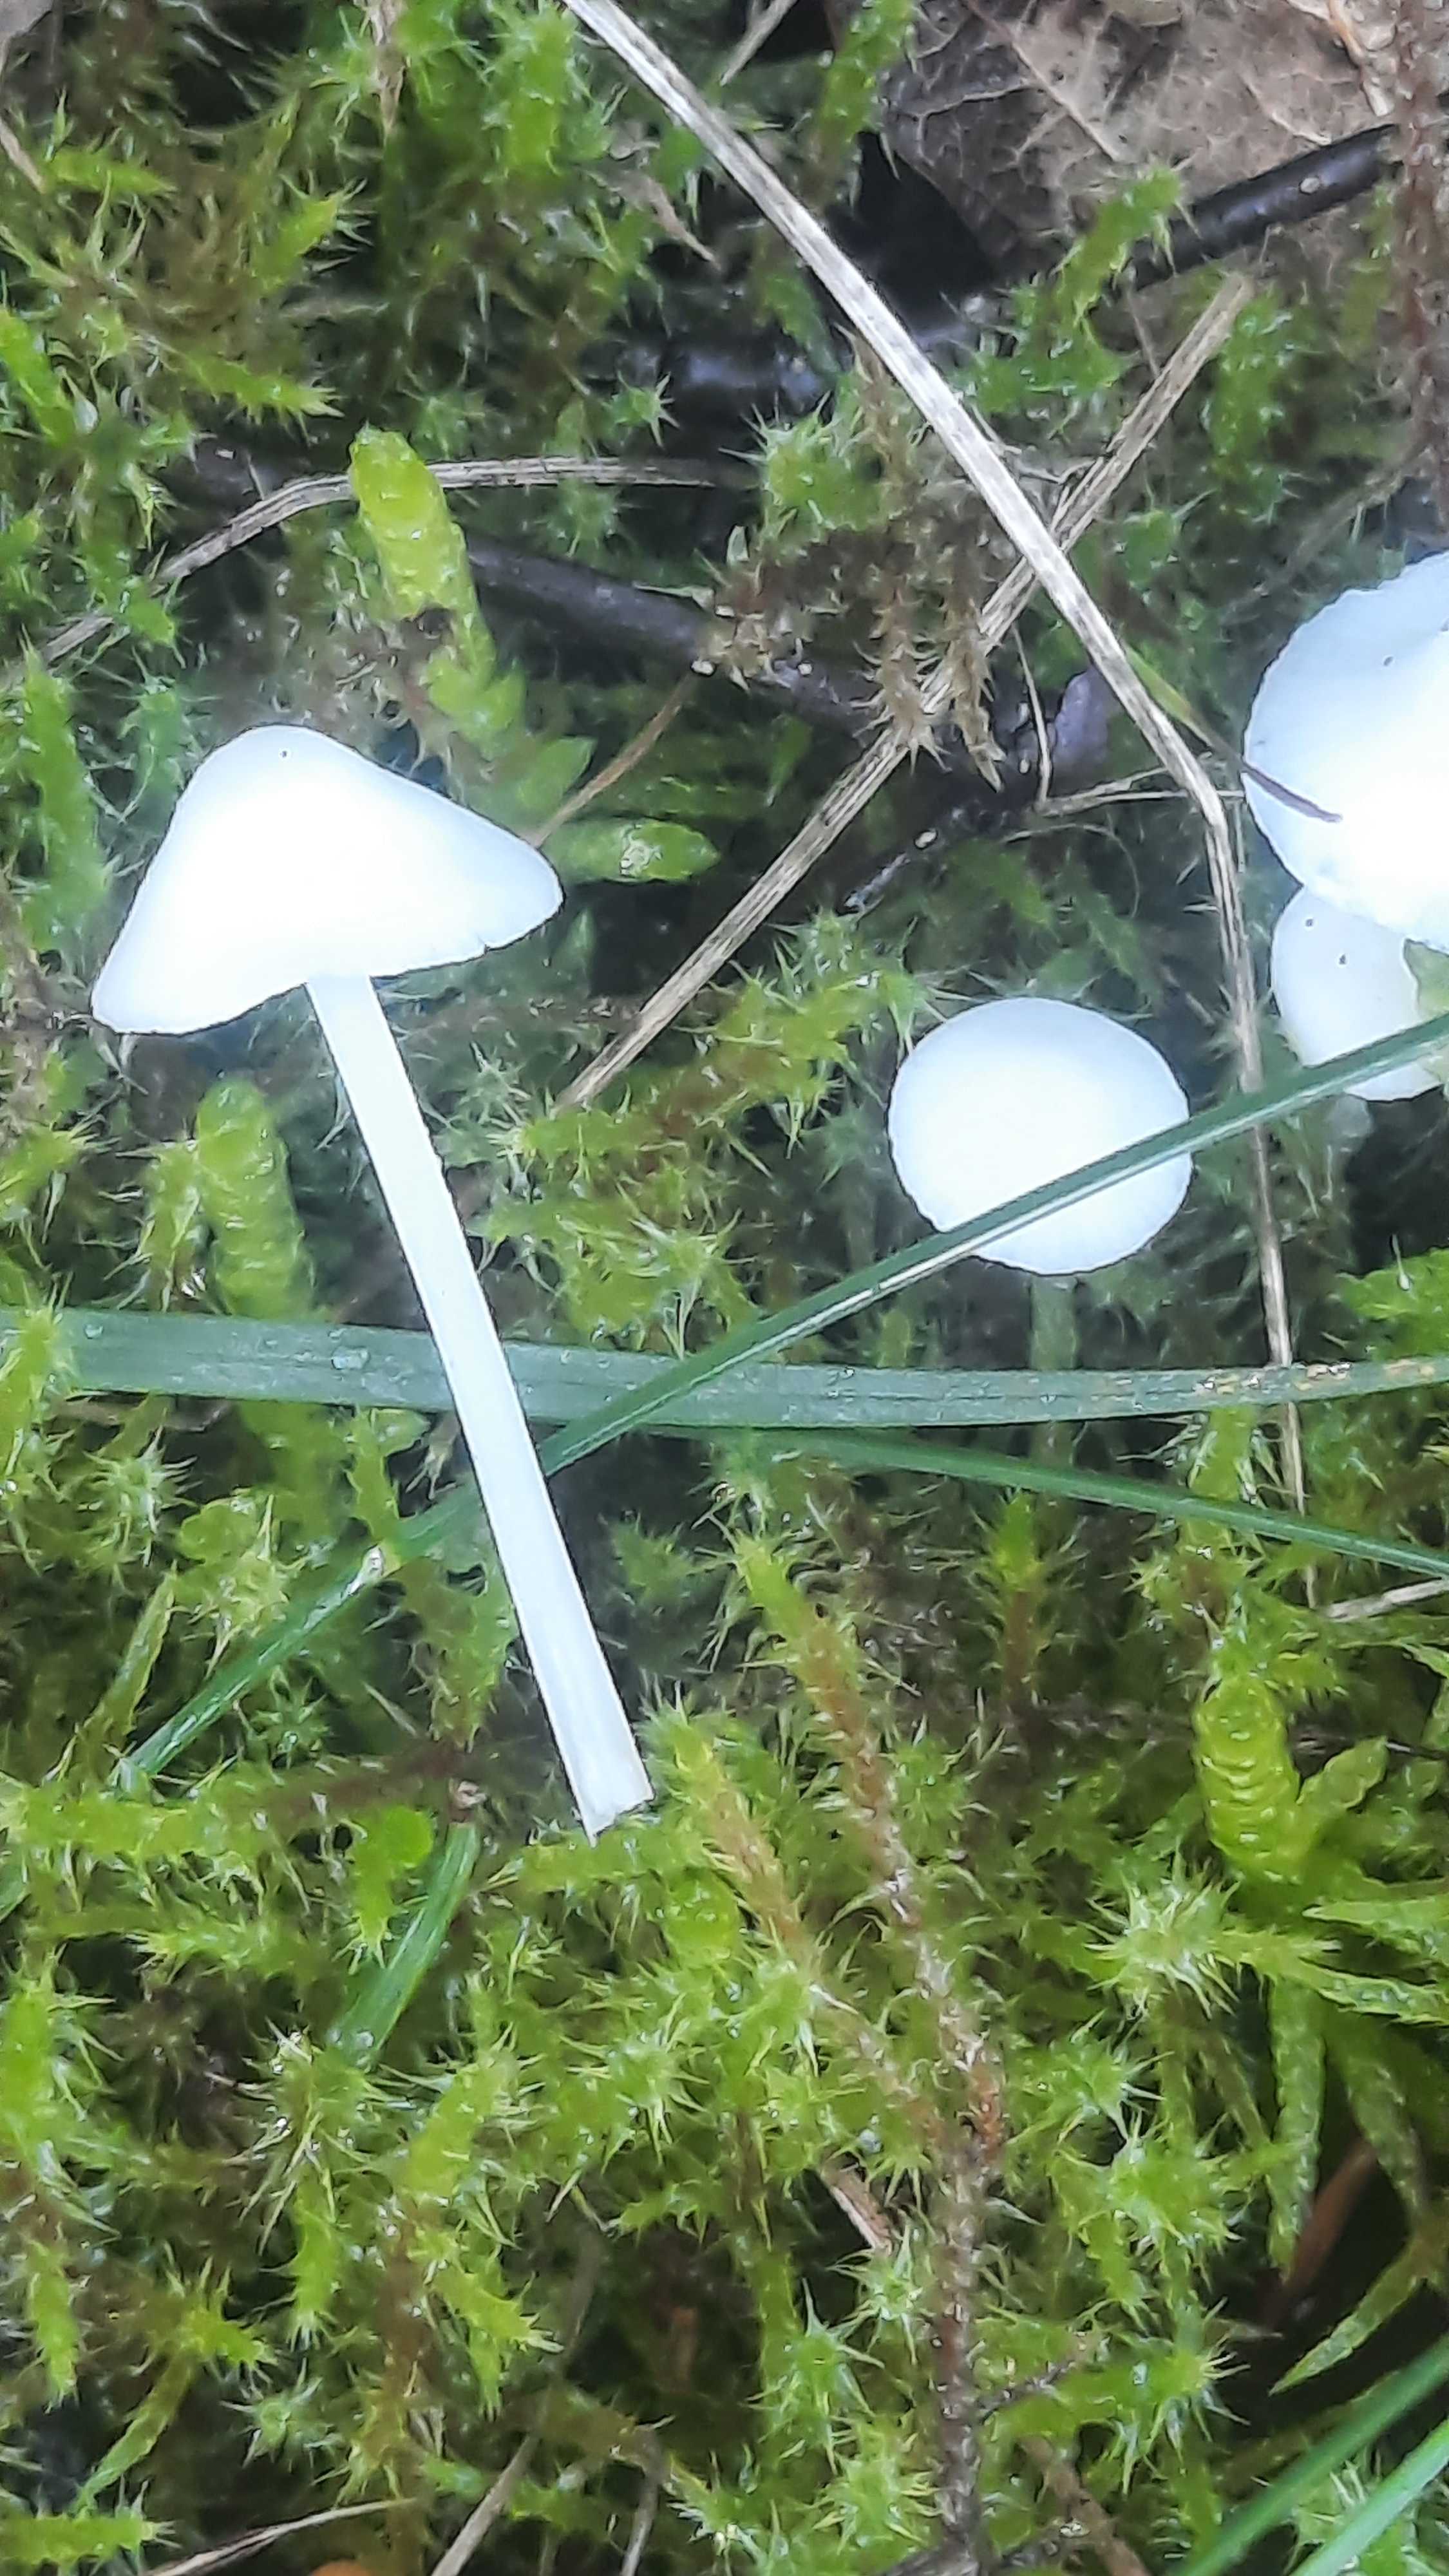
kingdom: Fungi
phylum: Basidiomycota
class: Agaricomycetes
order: Agaricales
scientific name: Agaricales
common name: champignonordenen
